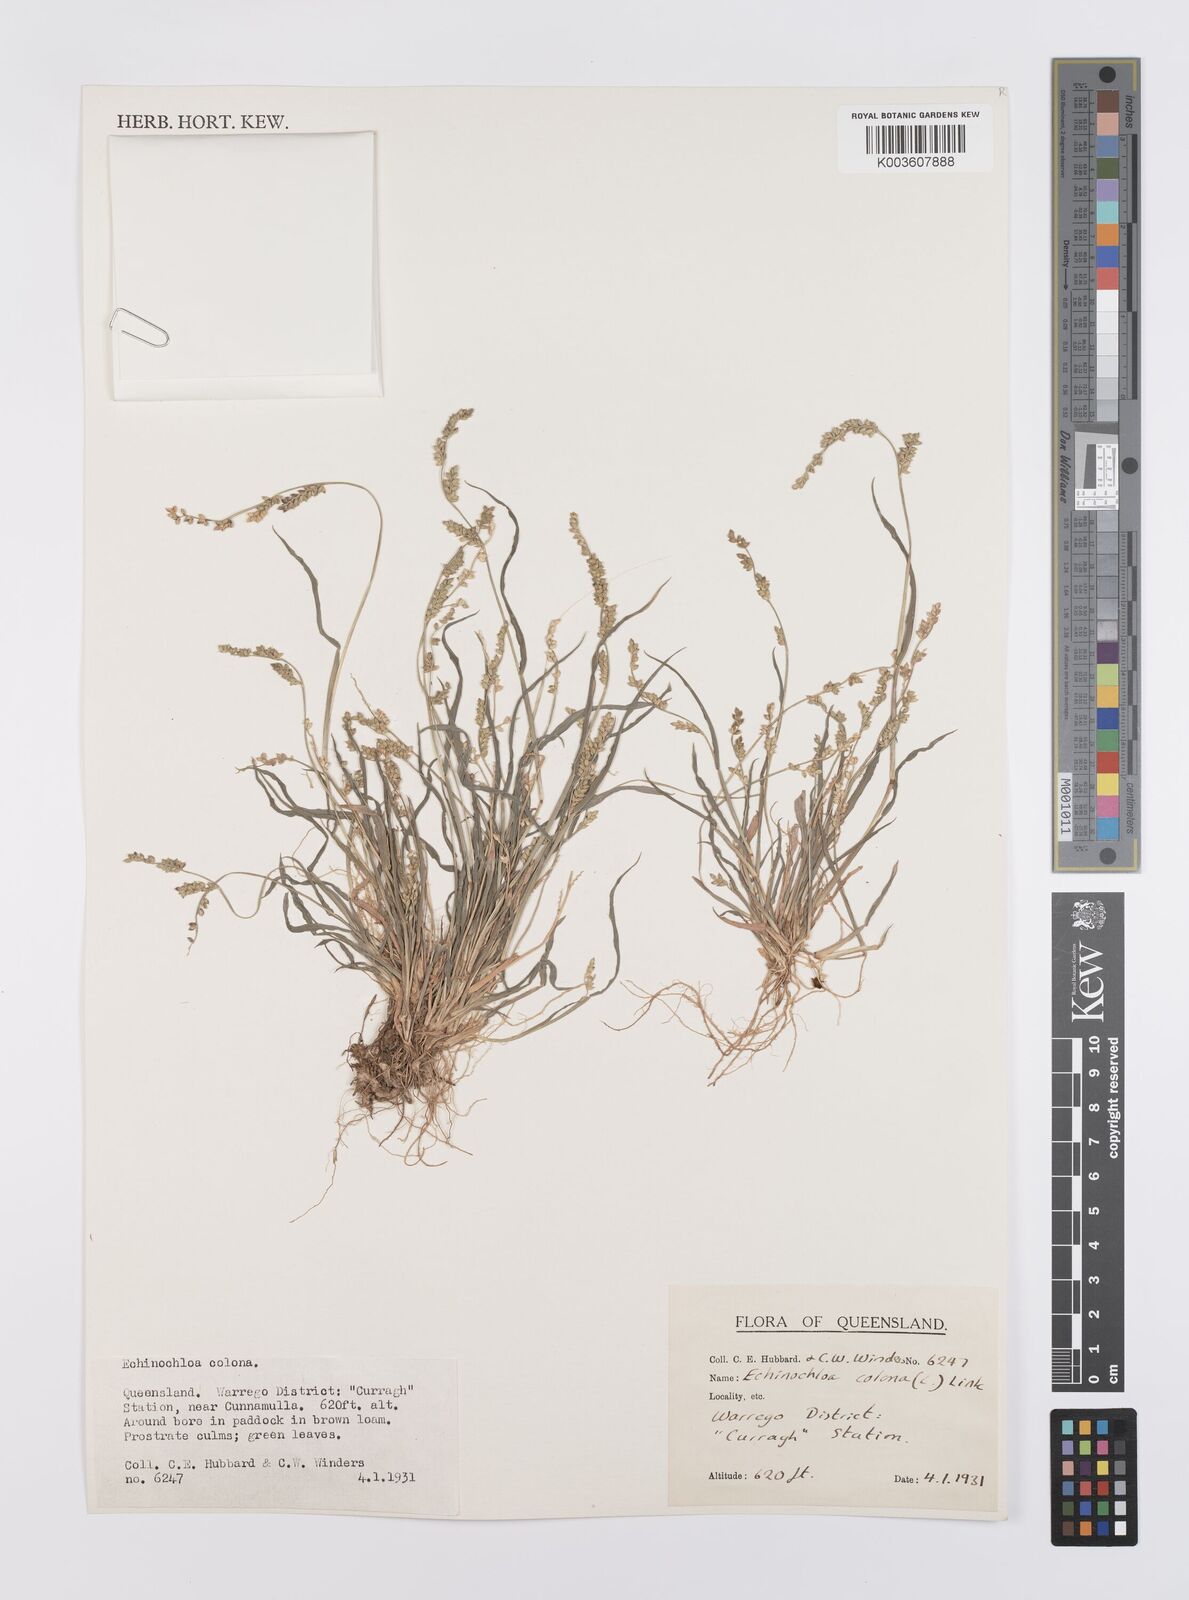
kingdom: Plantae
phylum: Tracheophyta
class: Liliopsida
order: Poales
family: Poaceae
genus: Echinochloa
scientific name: Echinochloa colonum
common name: Jungle rice
